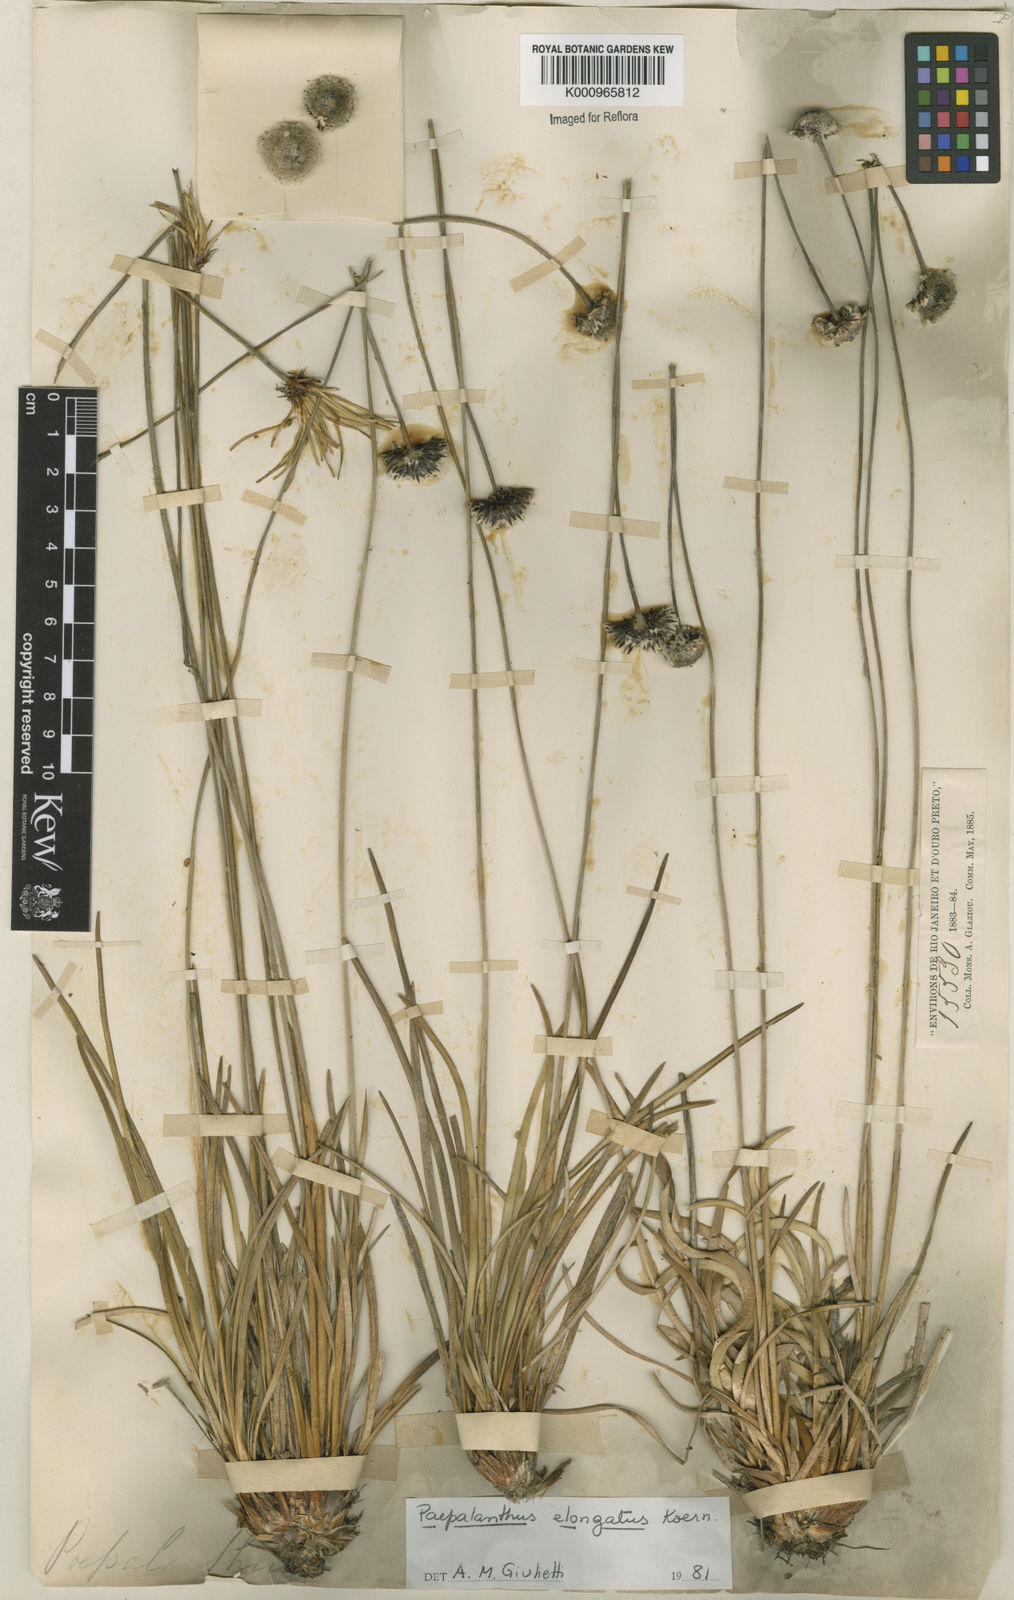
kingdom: Plantae
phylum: Tracheophyta
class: Liliopsida
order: Poales
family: Eriocaulaceae
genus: Paepalanthus
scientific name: Paepalanthus
